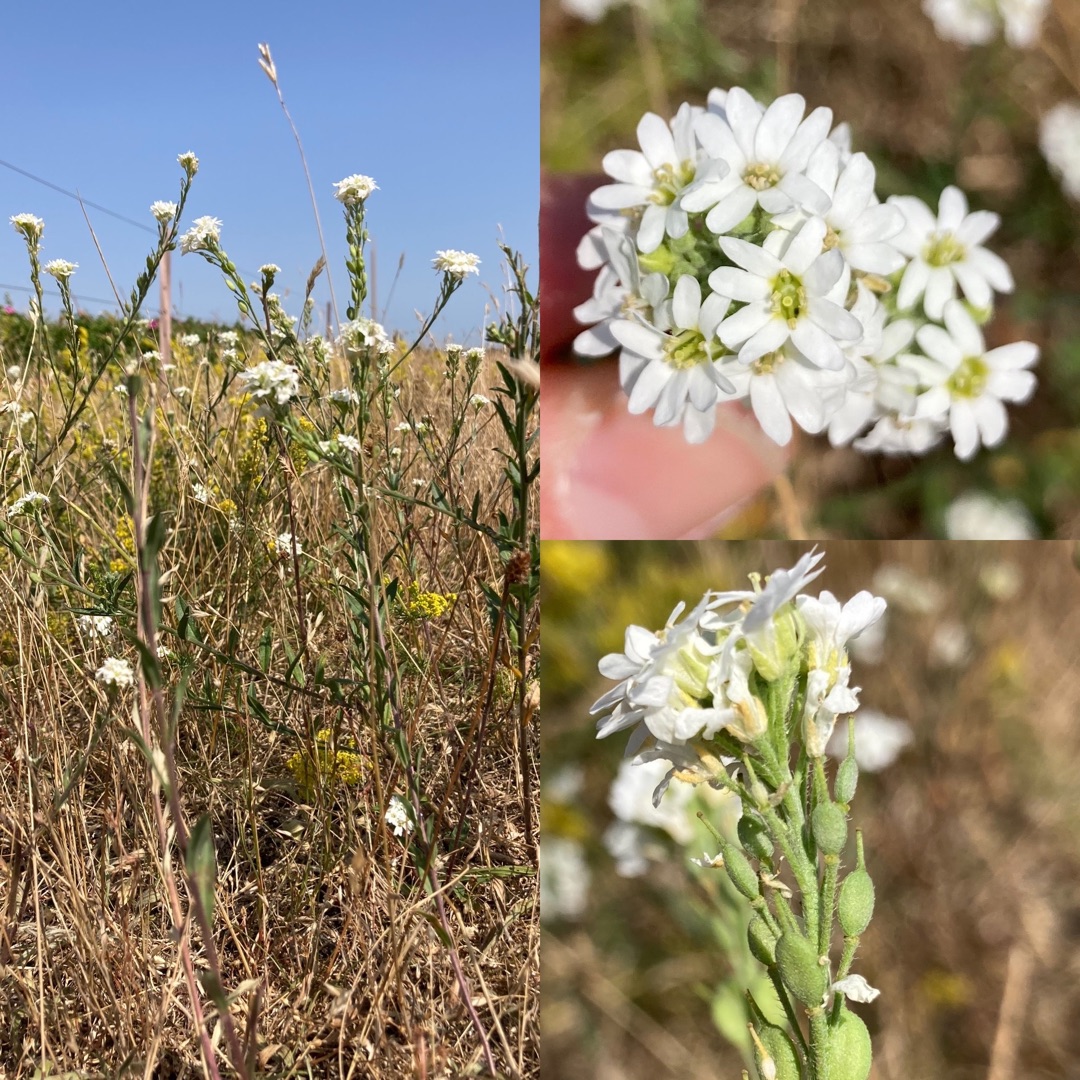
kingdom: Plantae
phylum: Tracheophyta
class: Magnoliopsida
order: Brassicales
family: Brassicaceae
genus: Berteroa
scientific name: Berteroa incana
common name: Kløvplade
